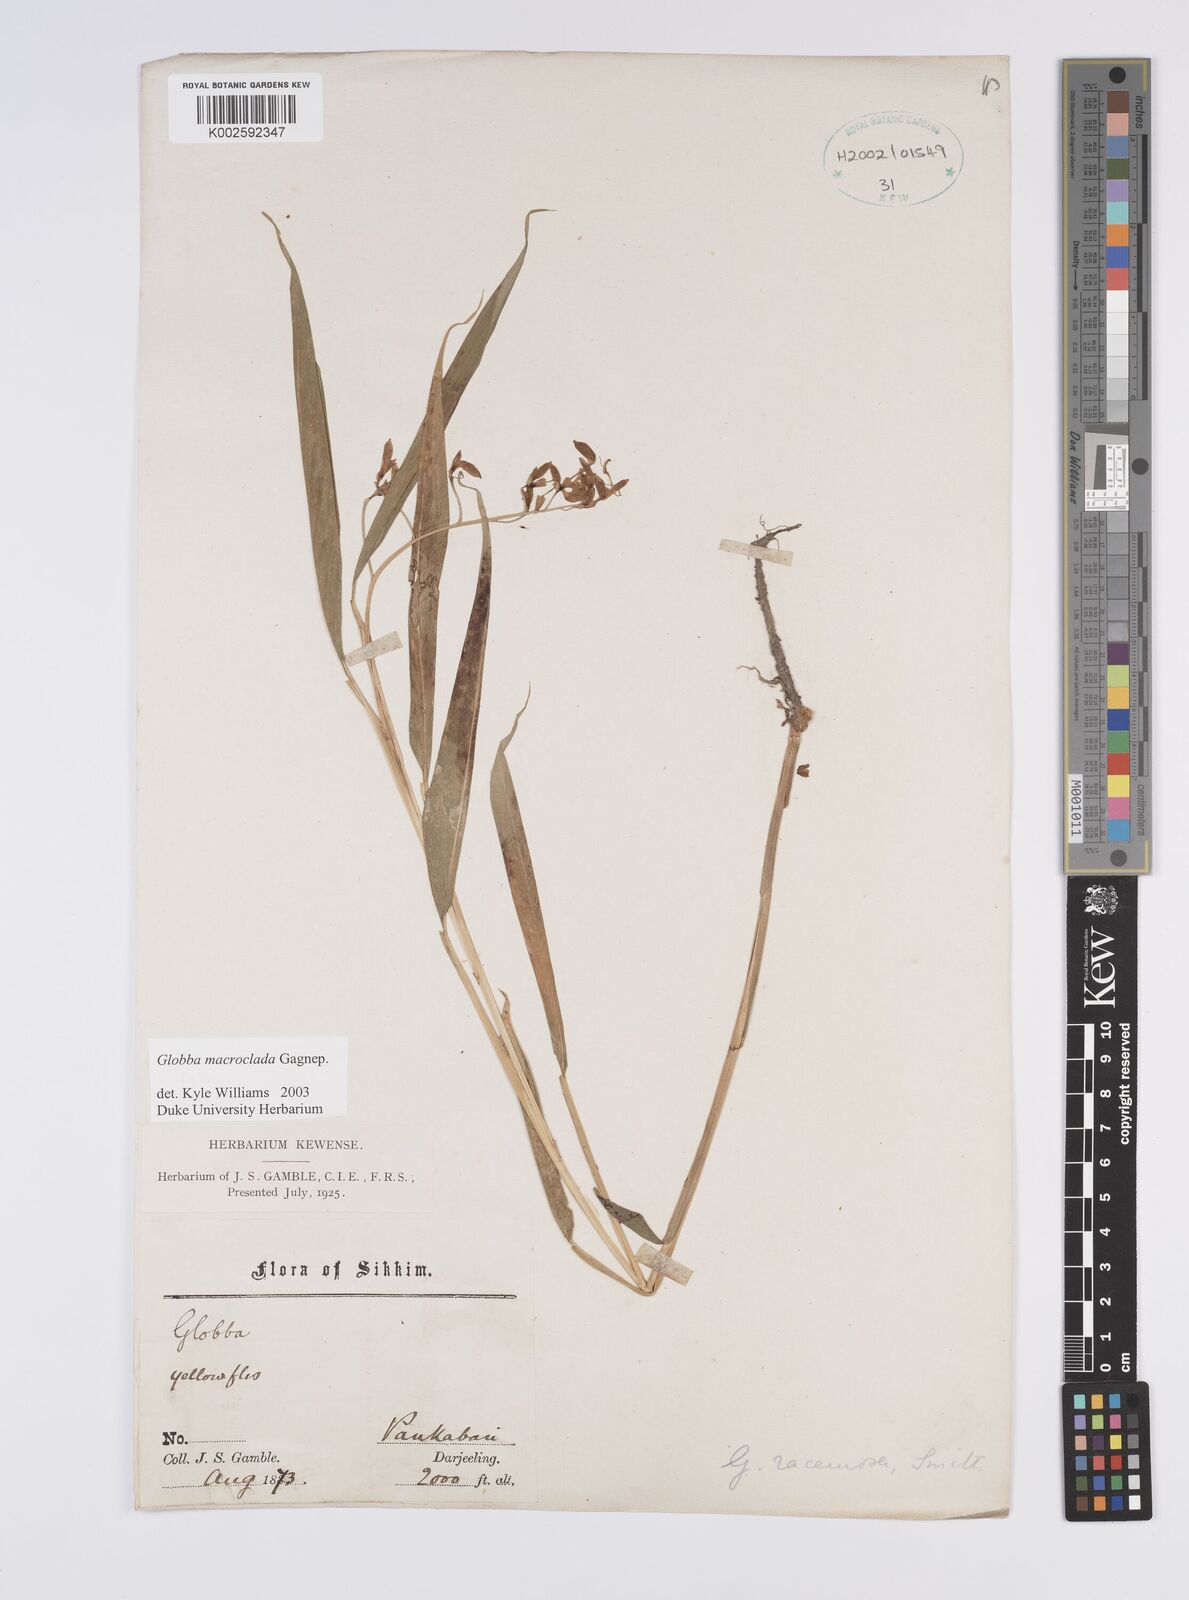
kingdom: Plantae
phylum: Tracheophyta
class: Liliopsida
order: Zingiberales
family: Zingiberaceae
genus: Globba
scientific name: Globba macroclada
